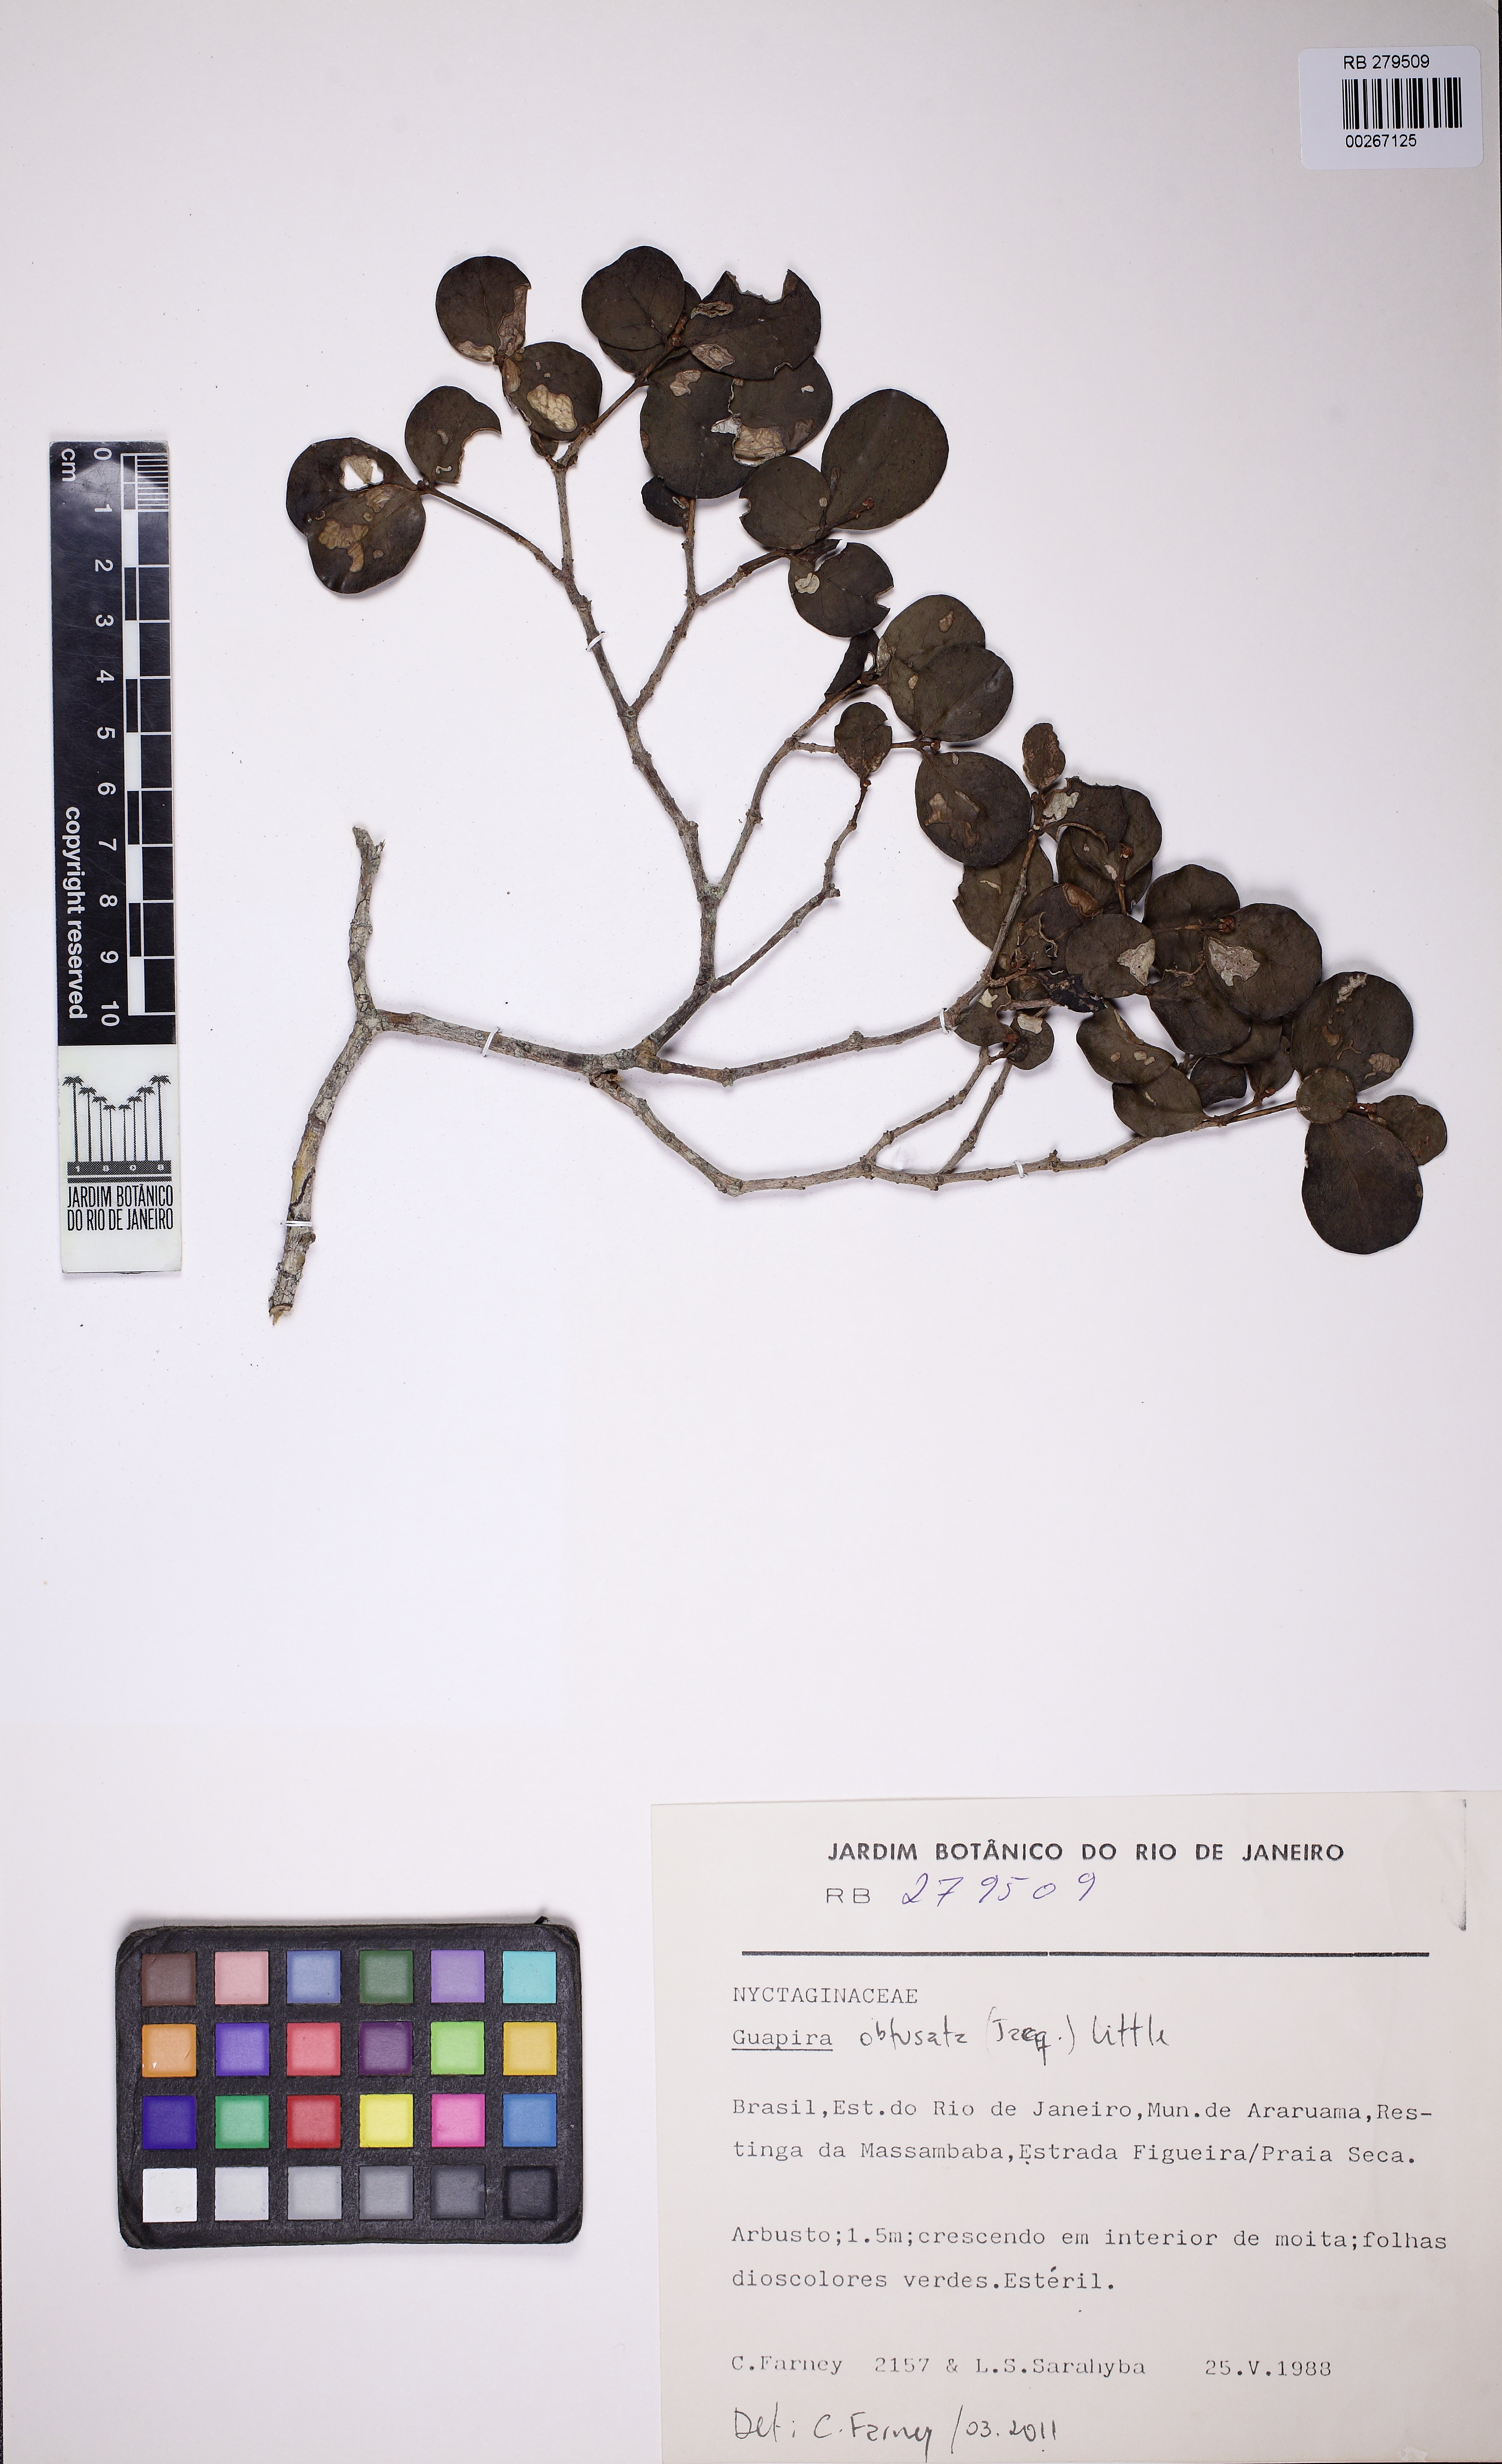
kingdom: Plantae
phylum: Tracheophyta
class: Magnoliopsida
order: Caryophyllales
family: Nyctaginaceae
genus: Guapira
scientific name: Guapira obtusata
